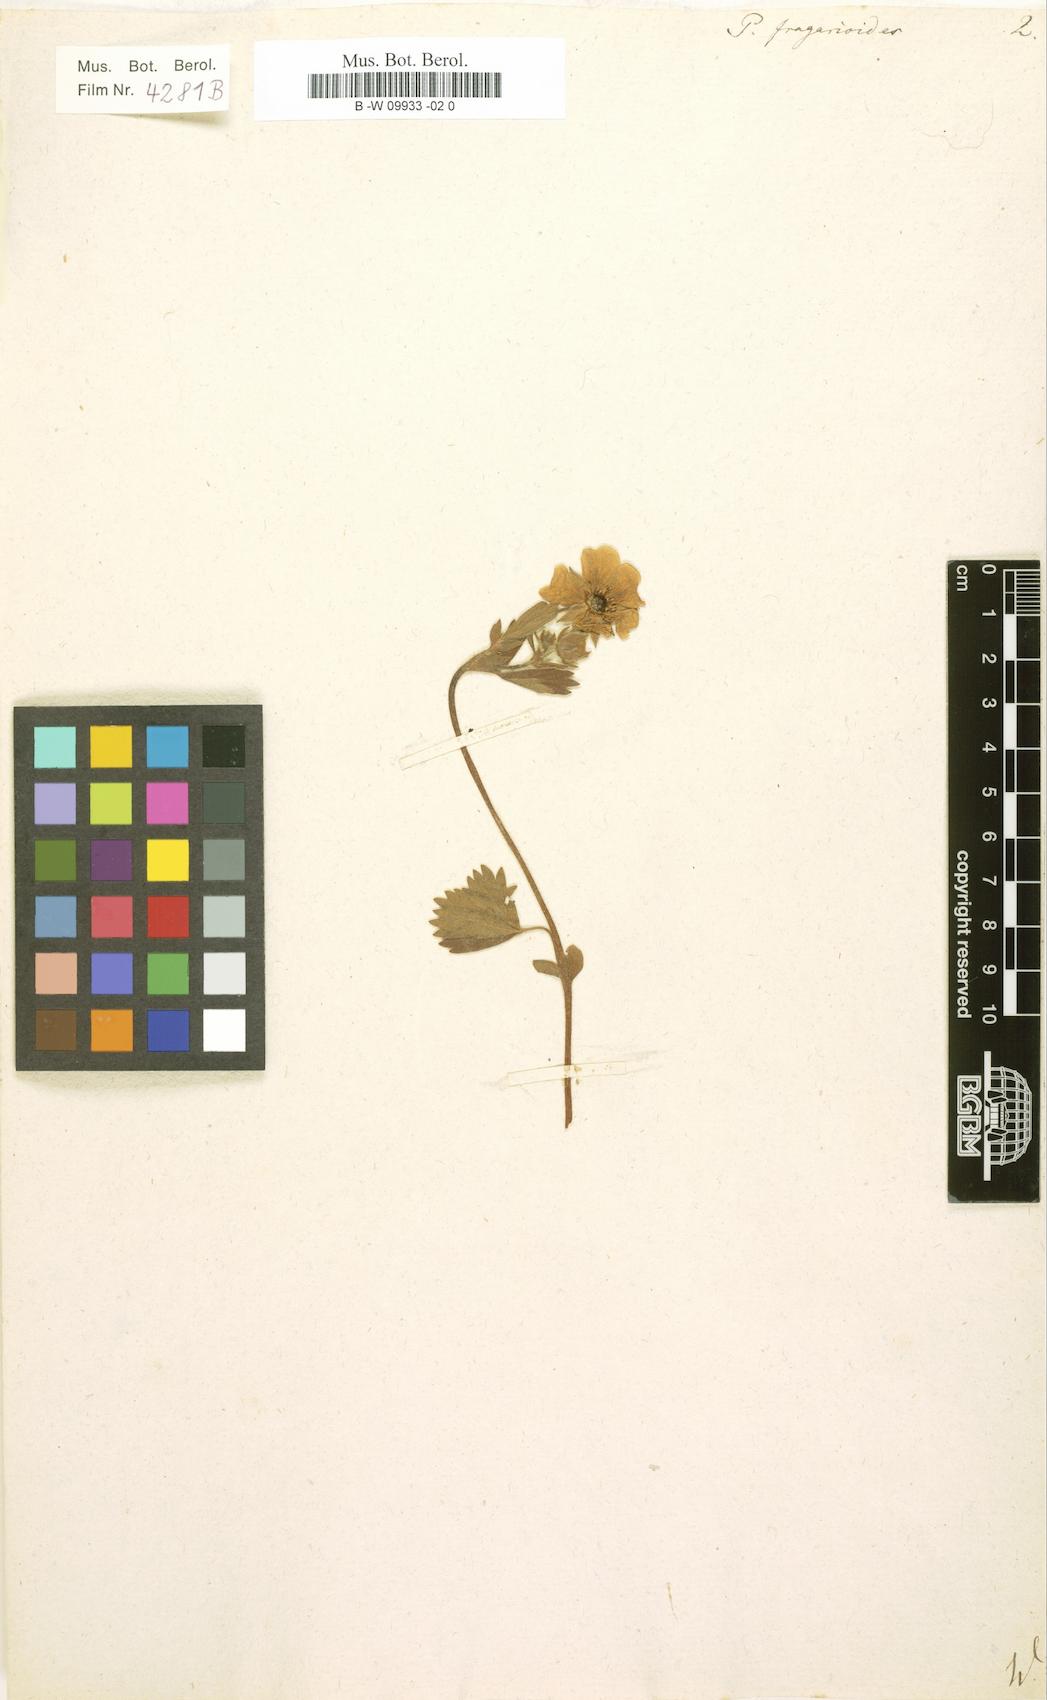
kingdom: Plantae
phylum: Tracheophyta
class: Magnoliopsida
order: Rosales
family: Rosaceae
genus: Potentilla
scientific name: Potentilla fragarioides
